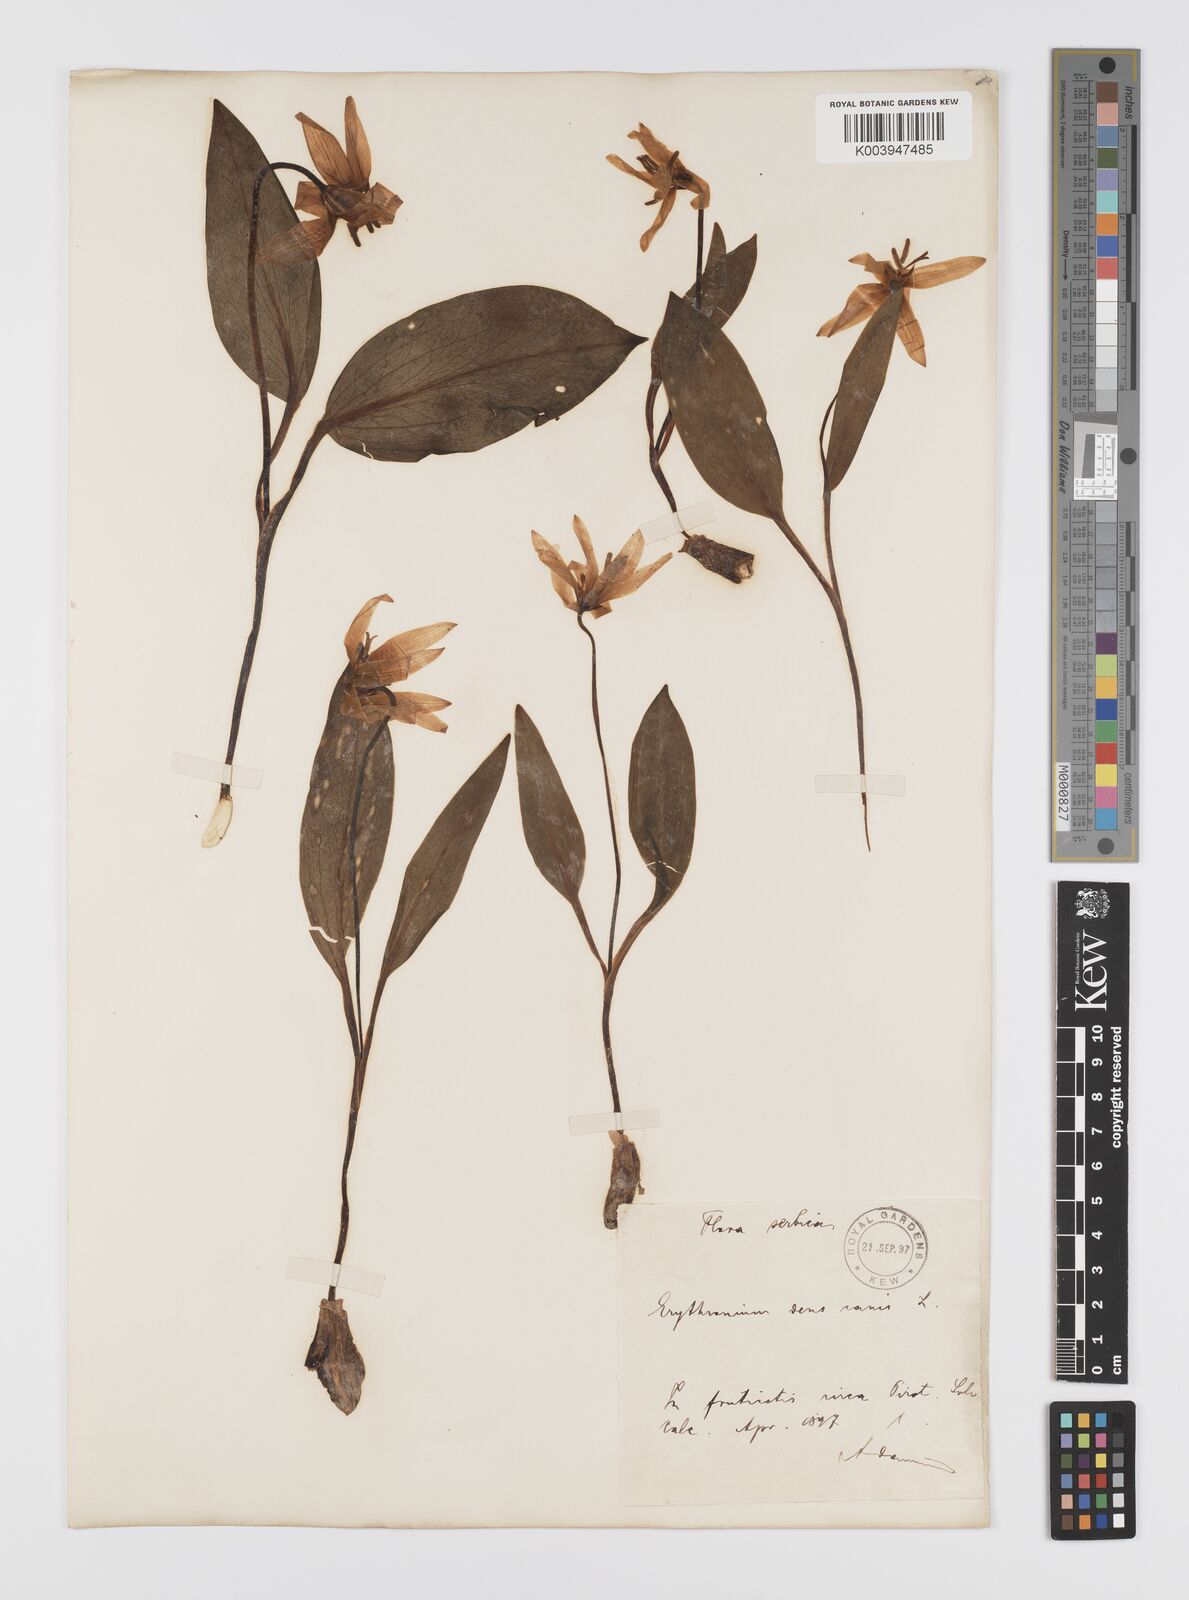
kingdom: Plantae
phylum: Tracheophyta
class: Liliopsida
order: Liliales
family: Liliaceae
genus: Erythronium
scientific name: Erythronium dens-canis
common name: Dog's-tooth-violet
